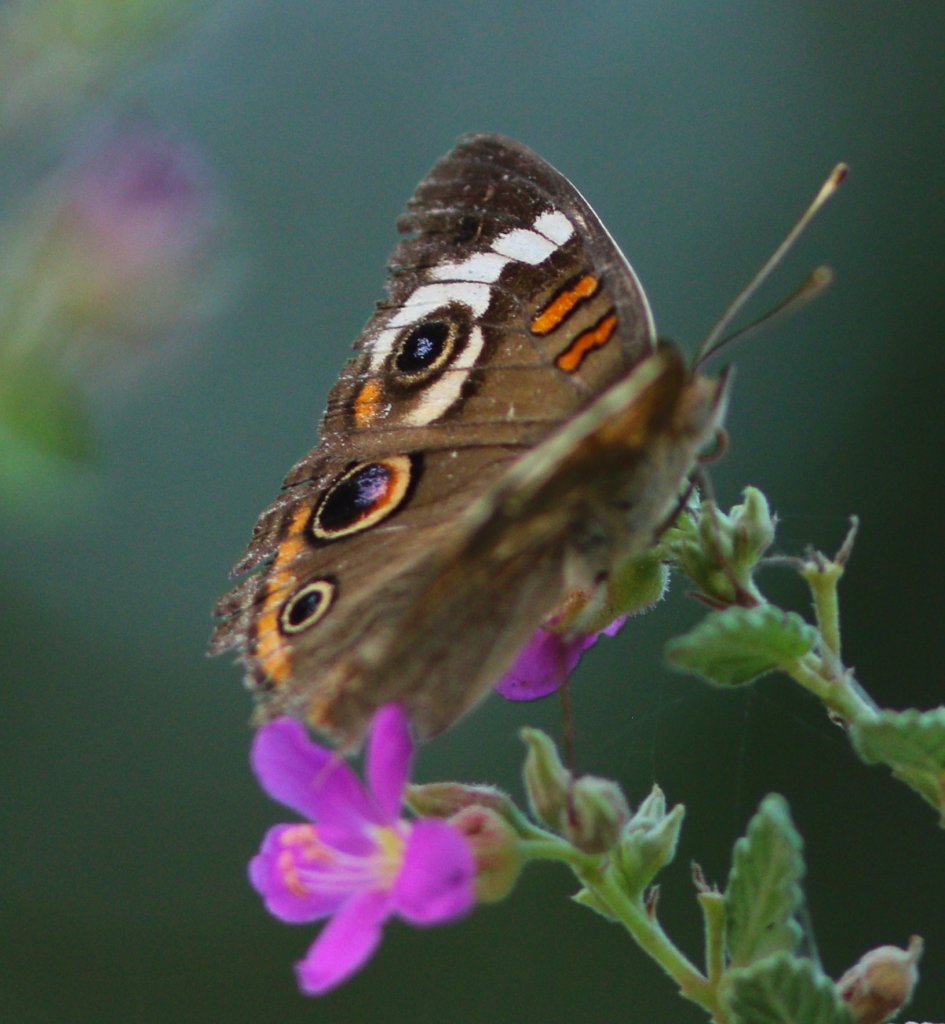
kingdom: Animalia
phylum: Arthropoda
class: Insecta
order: Lepidoptera
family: Nymphalidae
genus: Junonia
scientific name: Junonia coenia
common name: Common Buckeye
